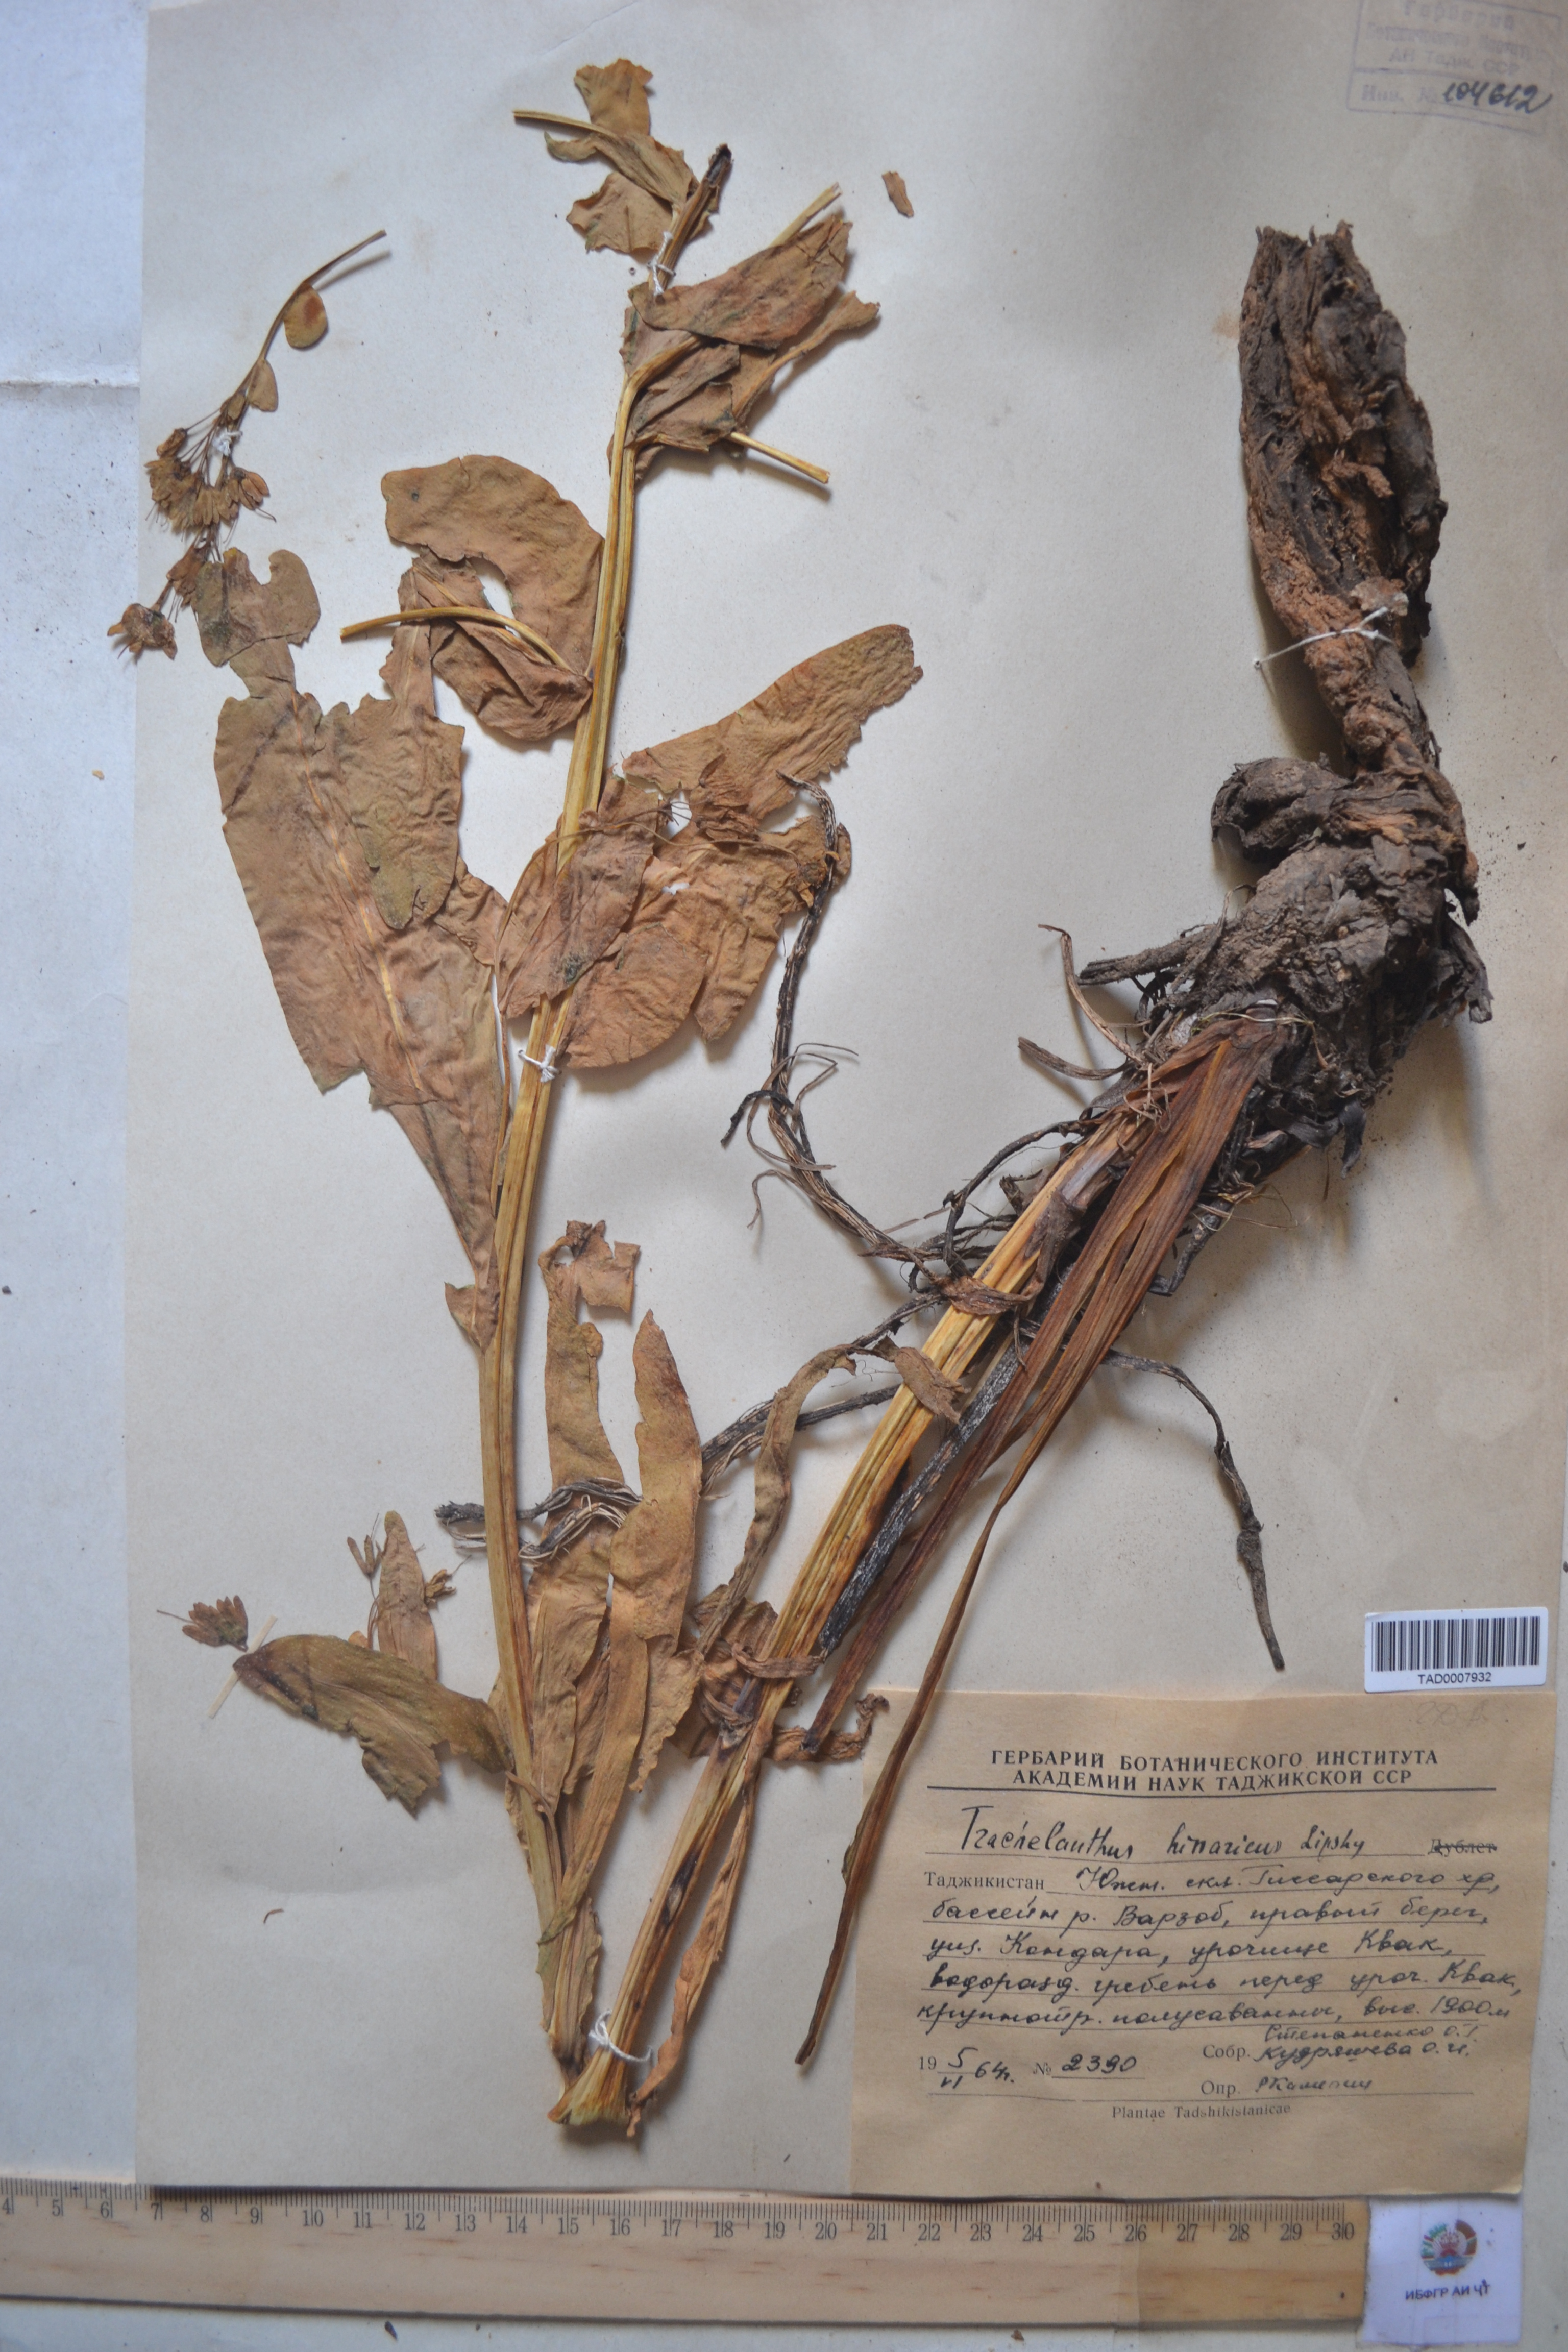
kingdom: Plantae
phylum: Tracheophyta
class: Magnoliopsida
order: Boraginales
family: Boraginaceae
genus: Lindelofia
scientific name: Lindelofia hissarica
